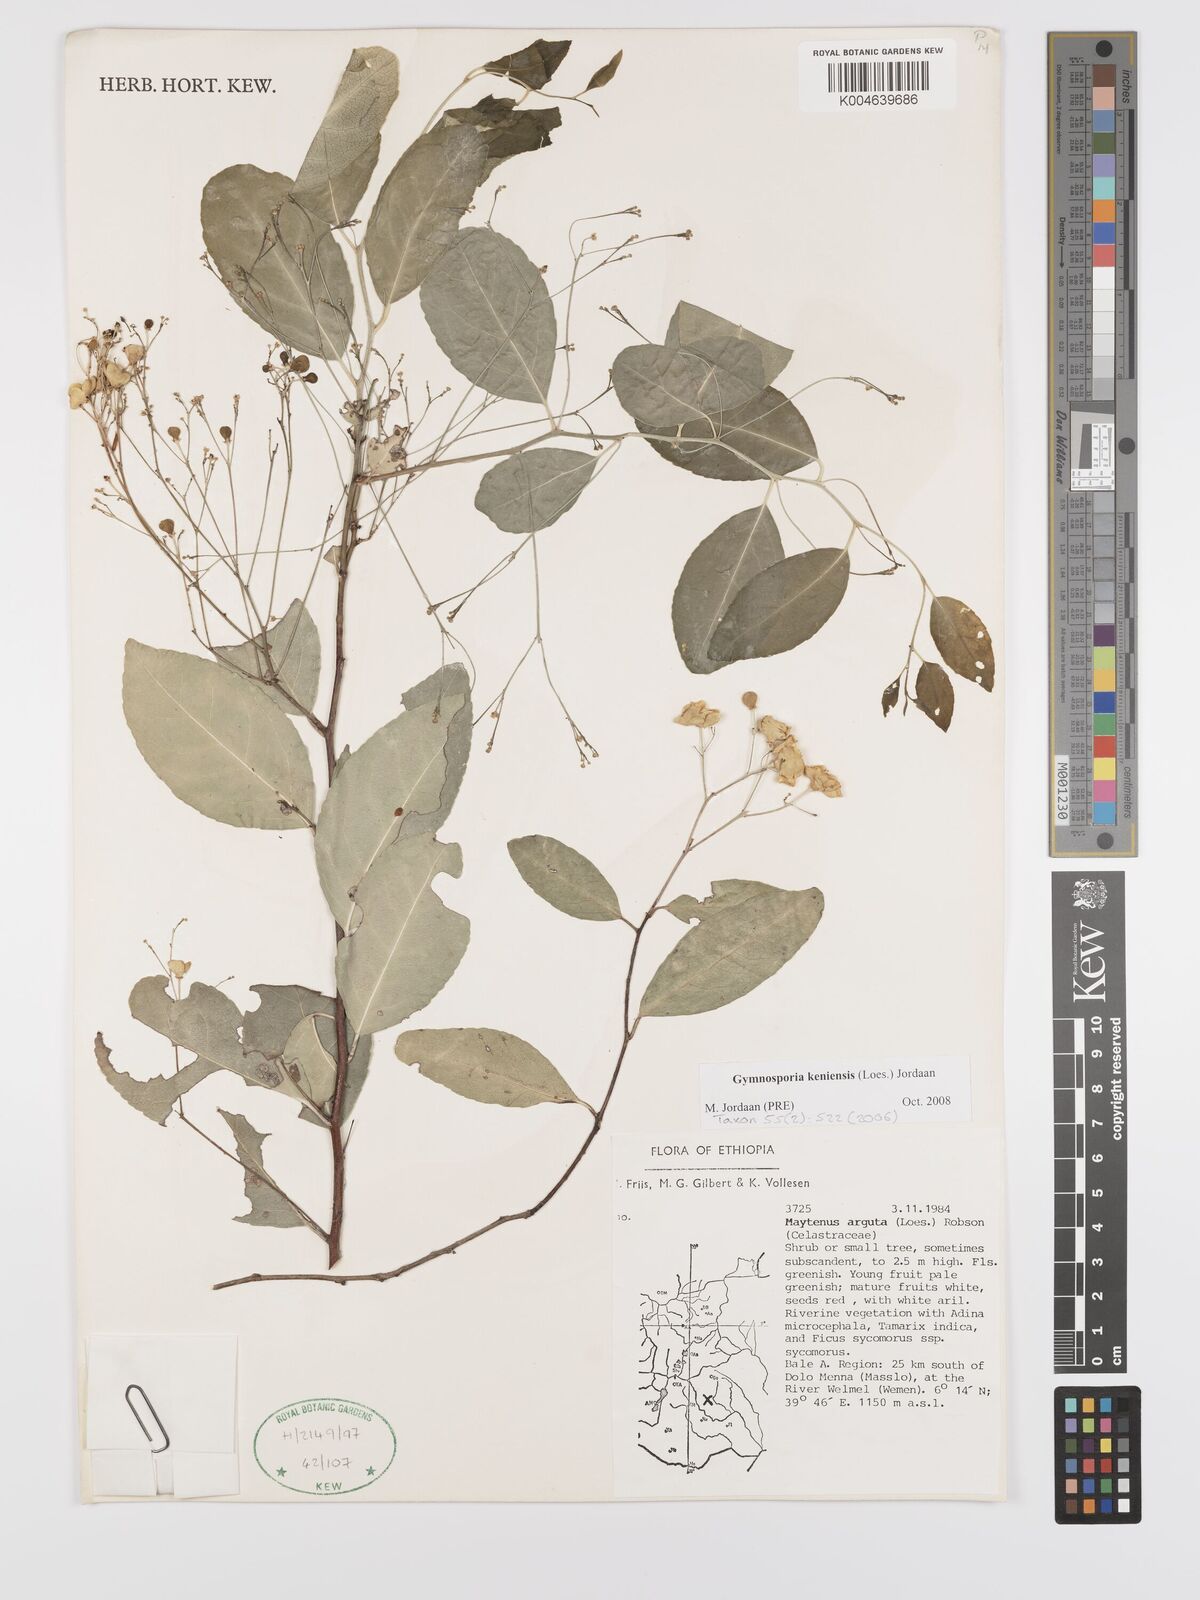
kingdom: Plantae
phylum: Tracheophyta
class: Magnoliopsida
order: Celastrales
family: Celastraceae
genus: Gymnosporia
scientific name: Gymnosporia gracilipes
